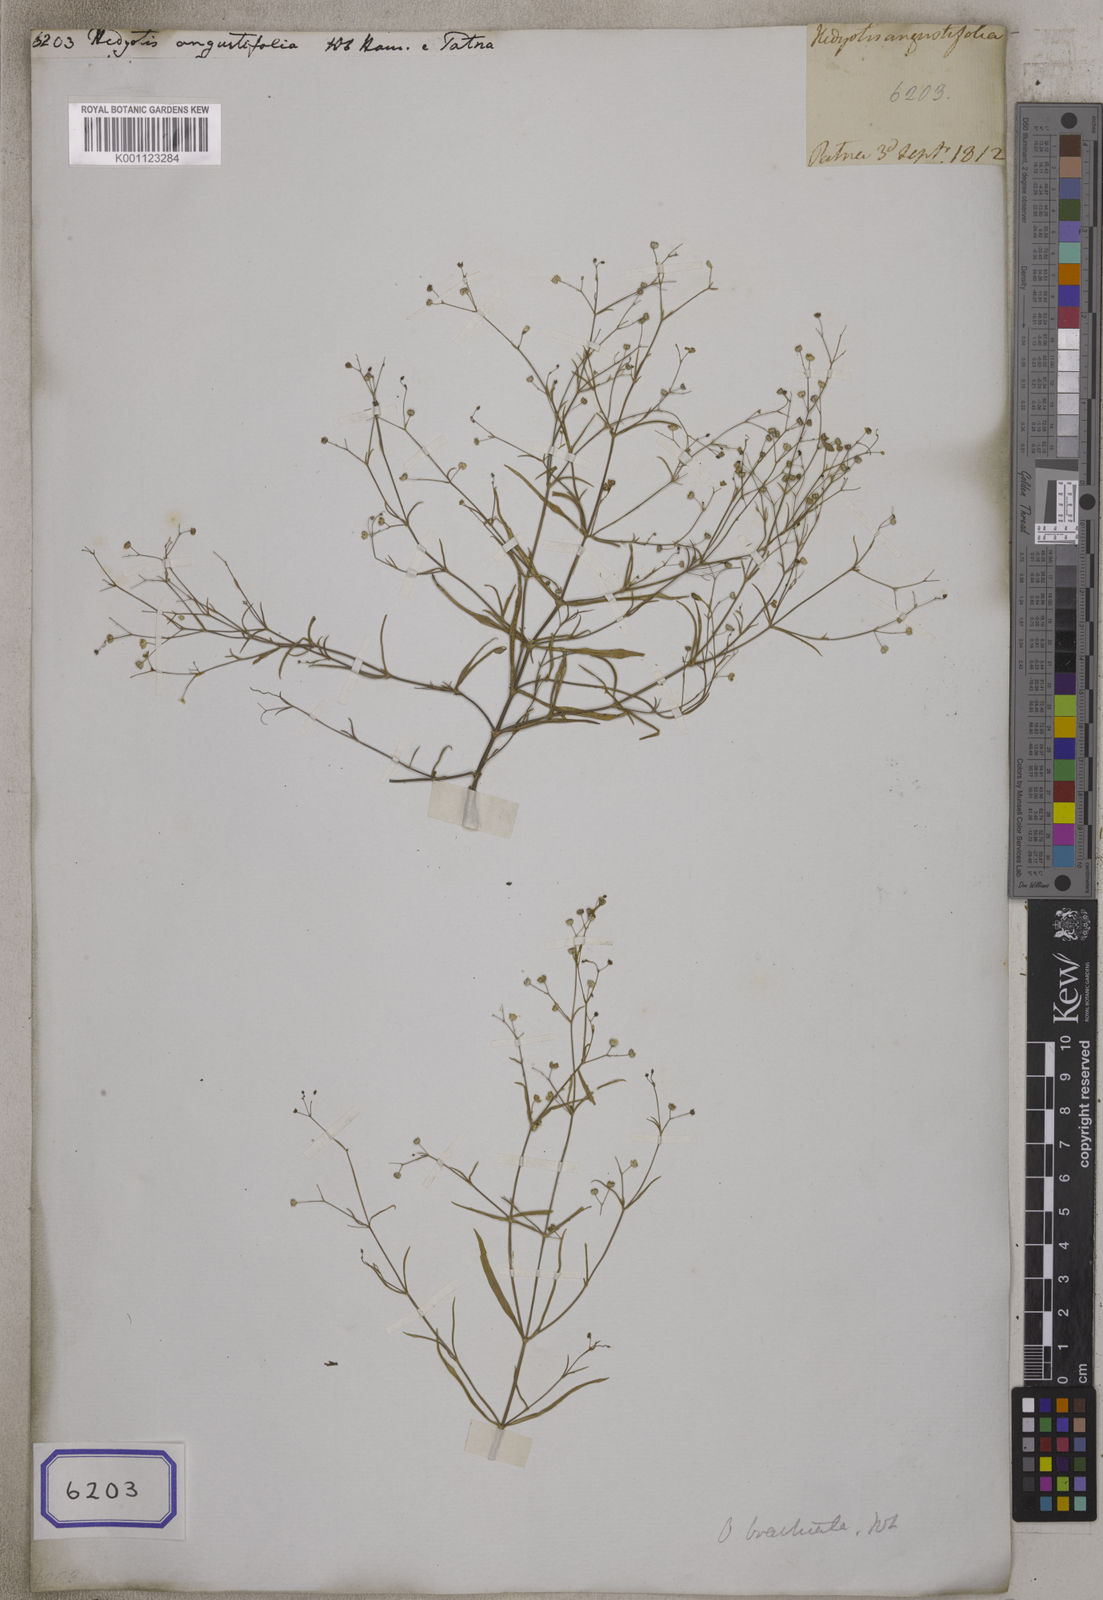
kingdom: Plantae
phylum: Tracheophyta
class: Magnoliopsida
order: Gentianales
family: Rubiaceae
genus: Hedyotis
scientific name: Hedyotis
